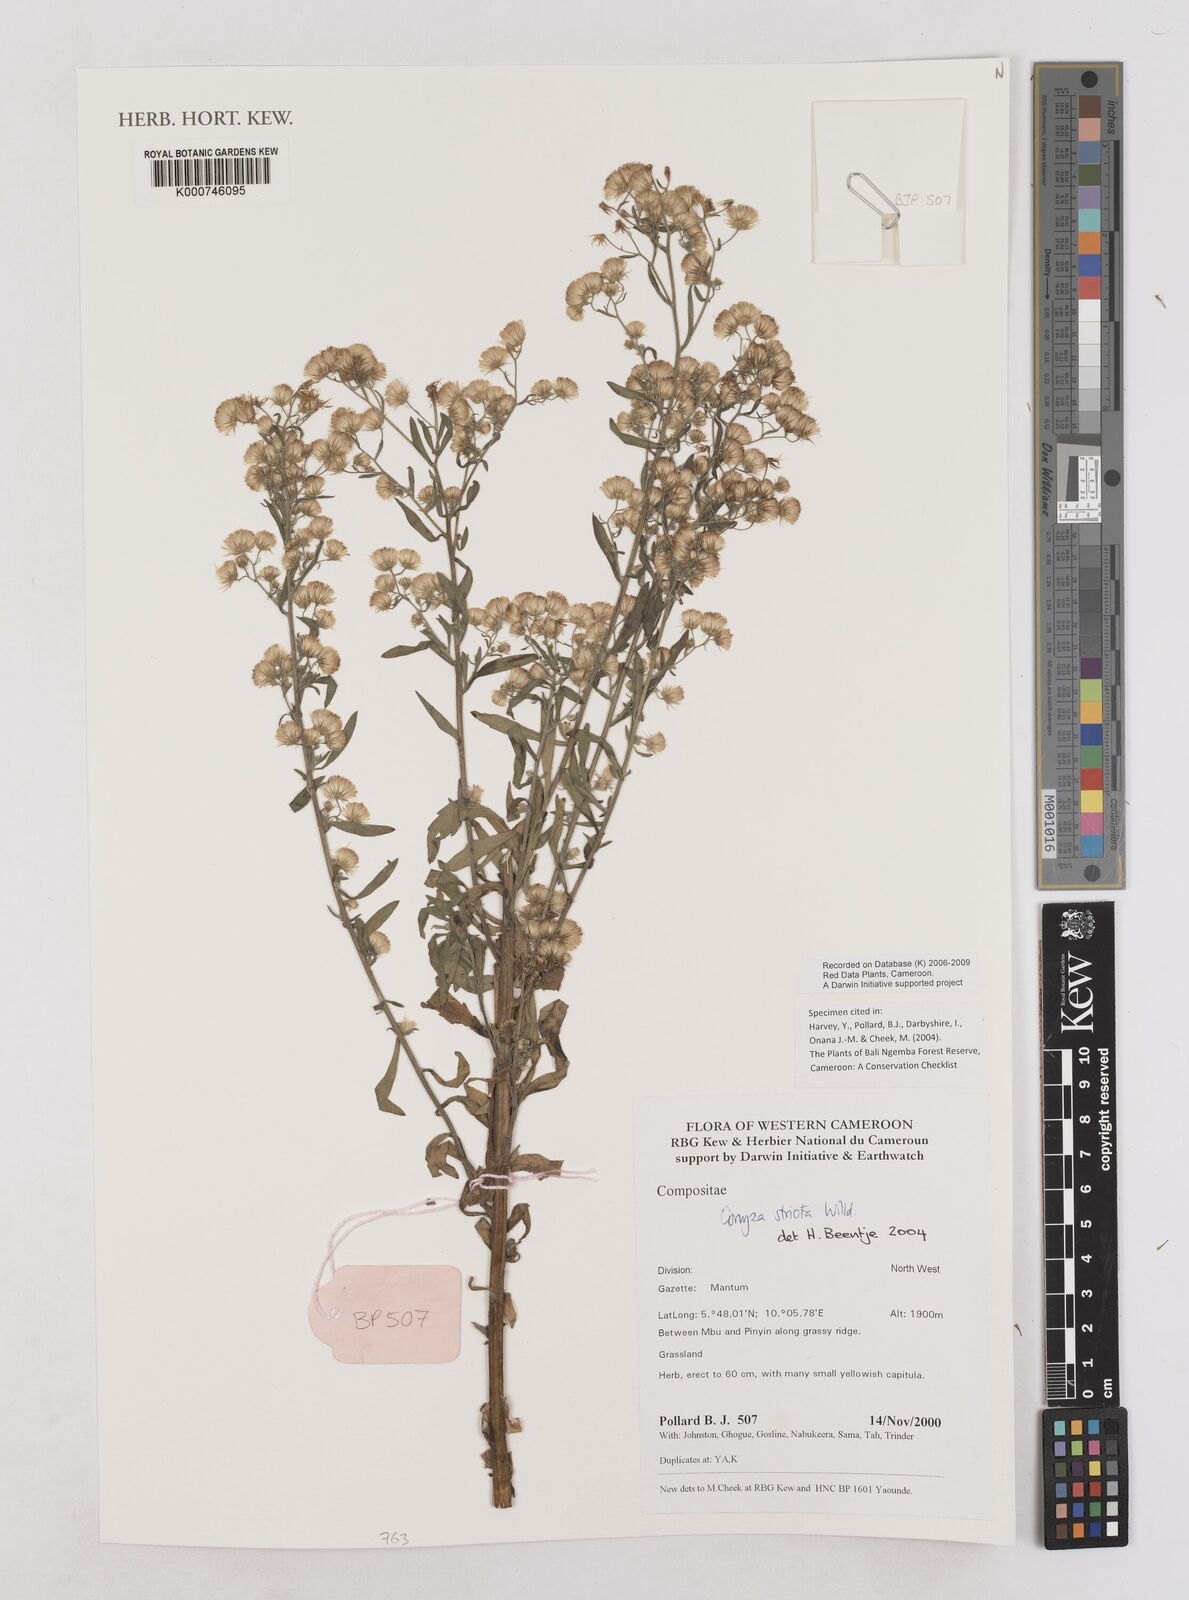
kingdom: Plantae
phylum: Tracheophyta
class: Magnoliopsida
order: Asterales
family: Asteraceae
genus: Nidorella
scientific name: Nidorella triloba
